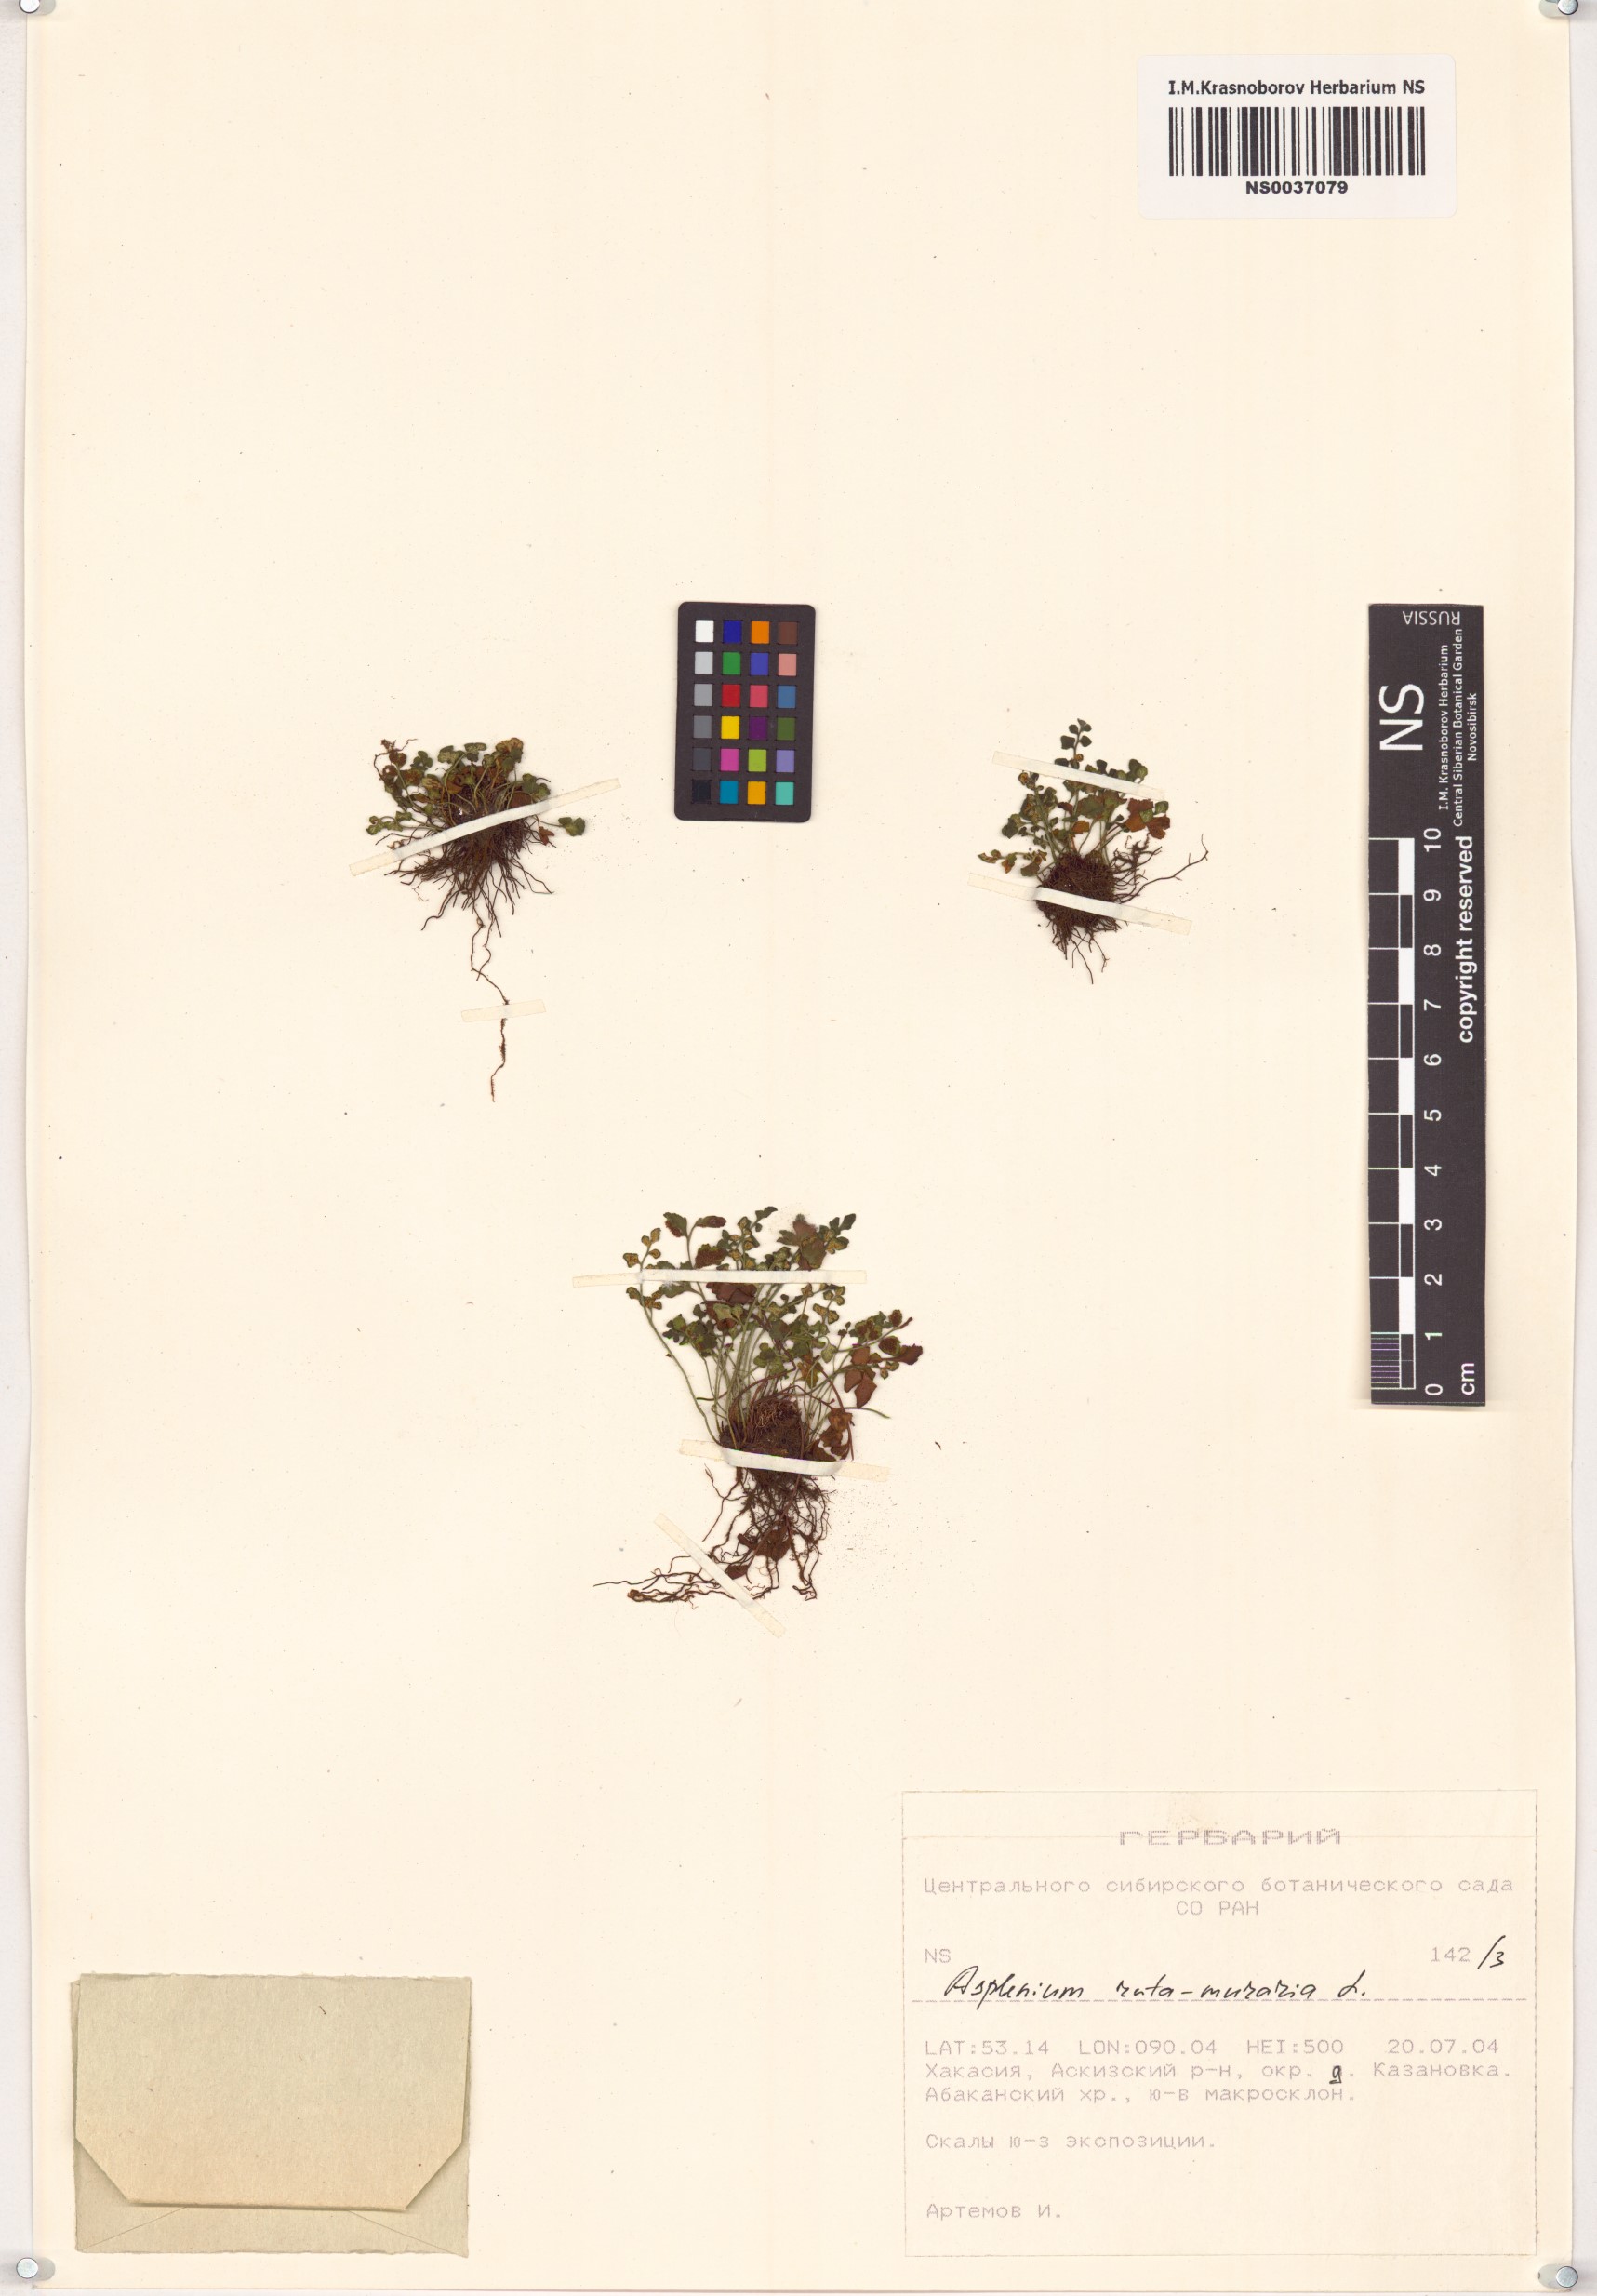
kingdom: Plantae
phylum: Tracheophyta
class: Polypodiopsida
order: Polypodiales
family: Aspleniaceae
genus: Asplenium
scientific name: Asplenium ruta-muraria
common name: Wall-rue
